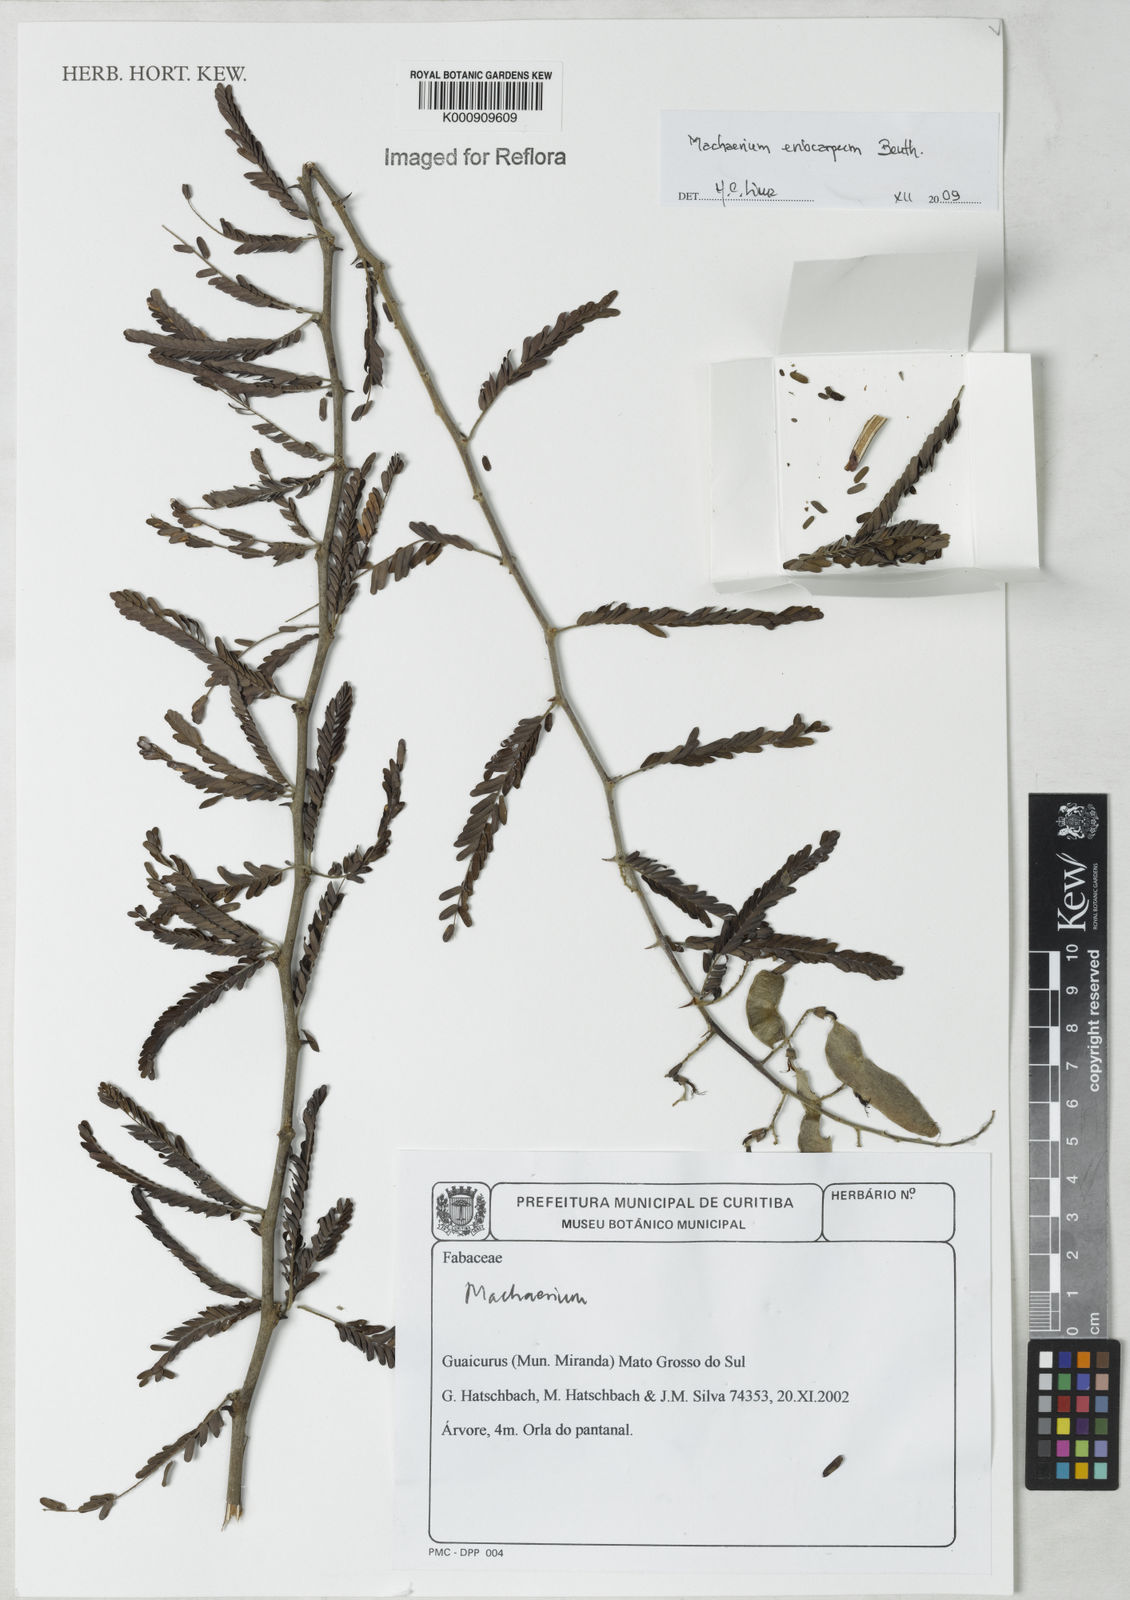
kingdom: Plantae
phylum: Tracheophyta
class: Magnoliopsida
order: Fabales
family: Fabaceae
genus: Machaerium
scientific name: Machaerium eriocarpum
